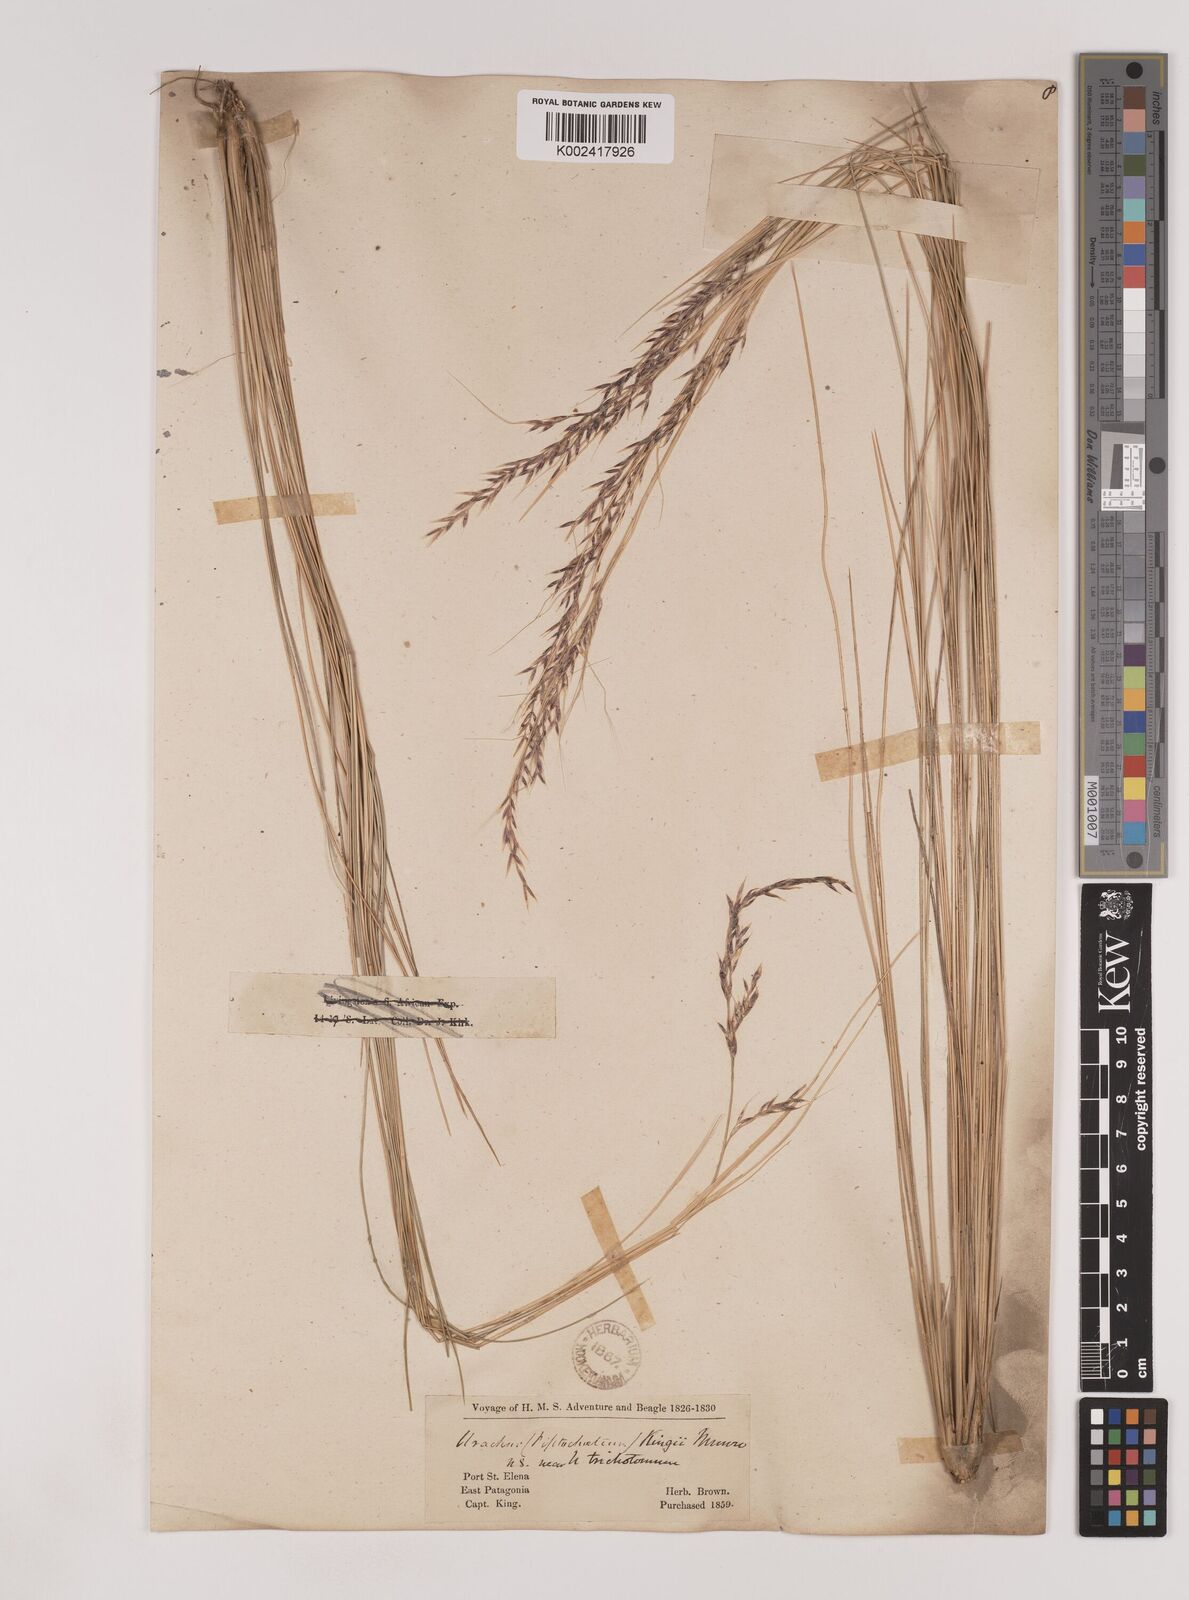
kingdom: Plantae
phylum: Tracheophyta
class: Liliopsida
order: Poales
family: Poaceae
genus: Nassella
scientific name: Nassella pampeana
